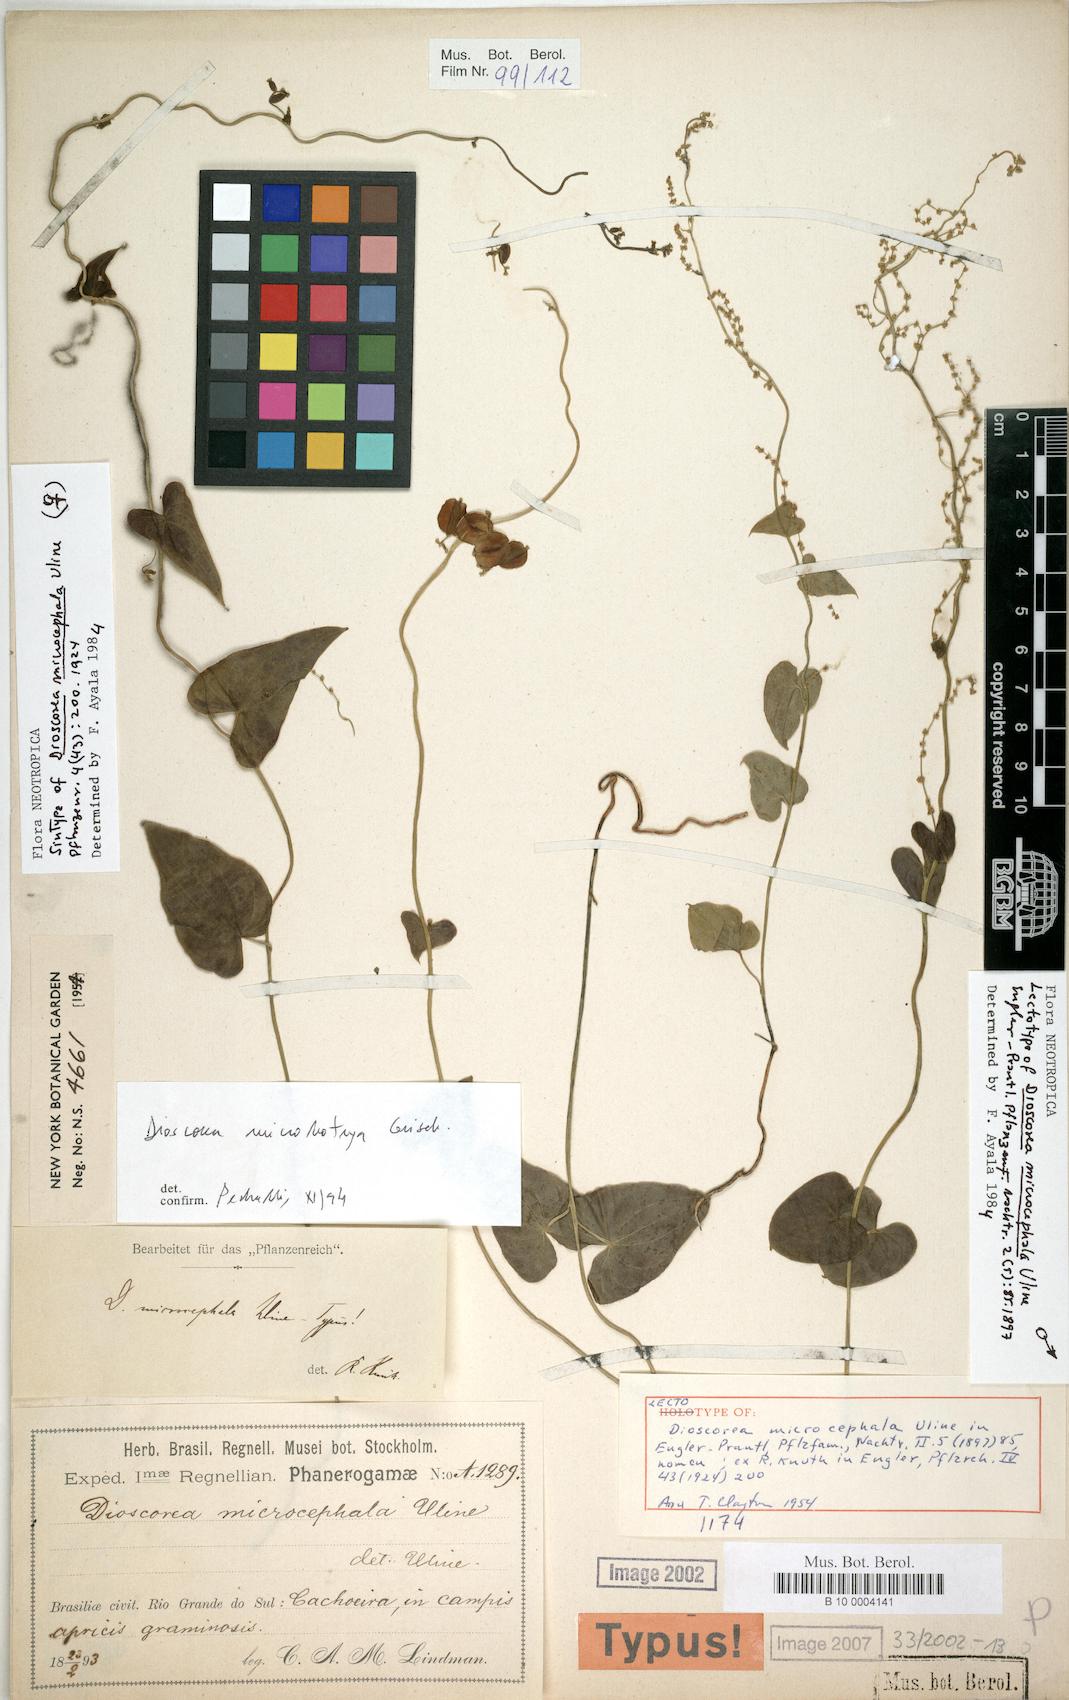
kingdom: Plantae
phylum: Tracheophyta
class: Liliopsida
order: Dioscoreales
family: Dioscoreaceae
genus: Dioscorea
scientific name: Dioscorea microbotrya
